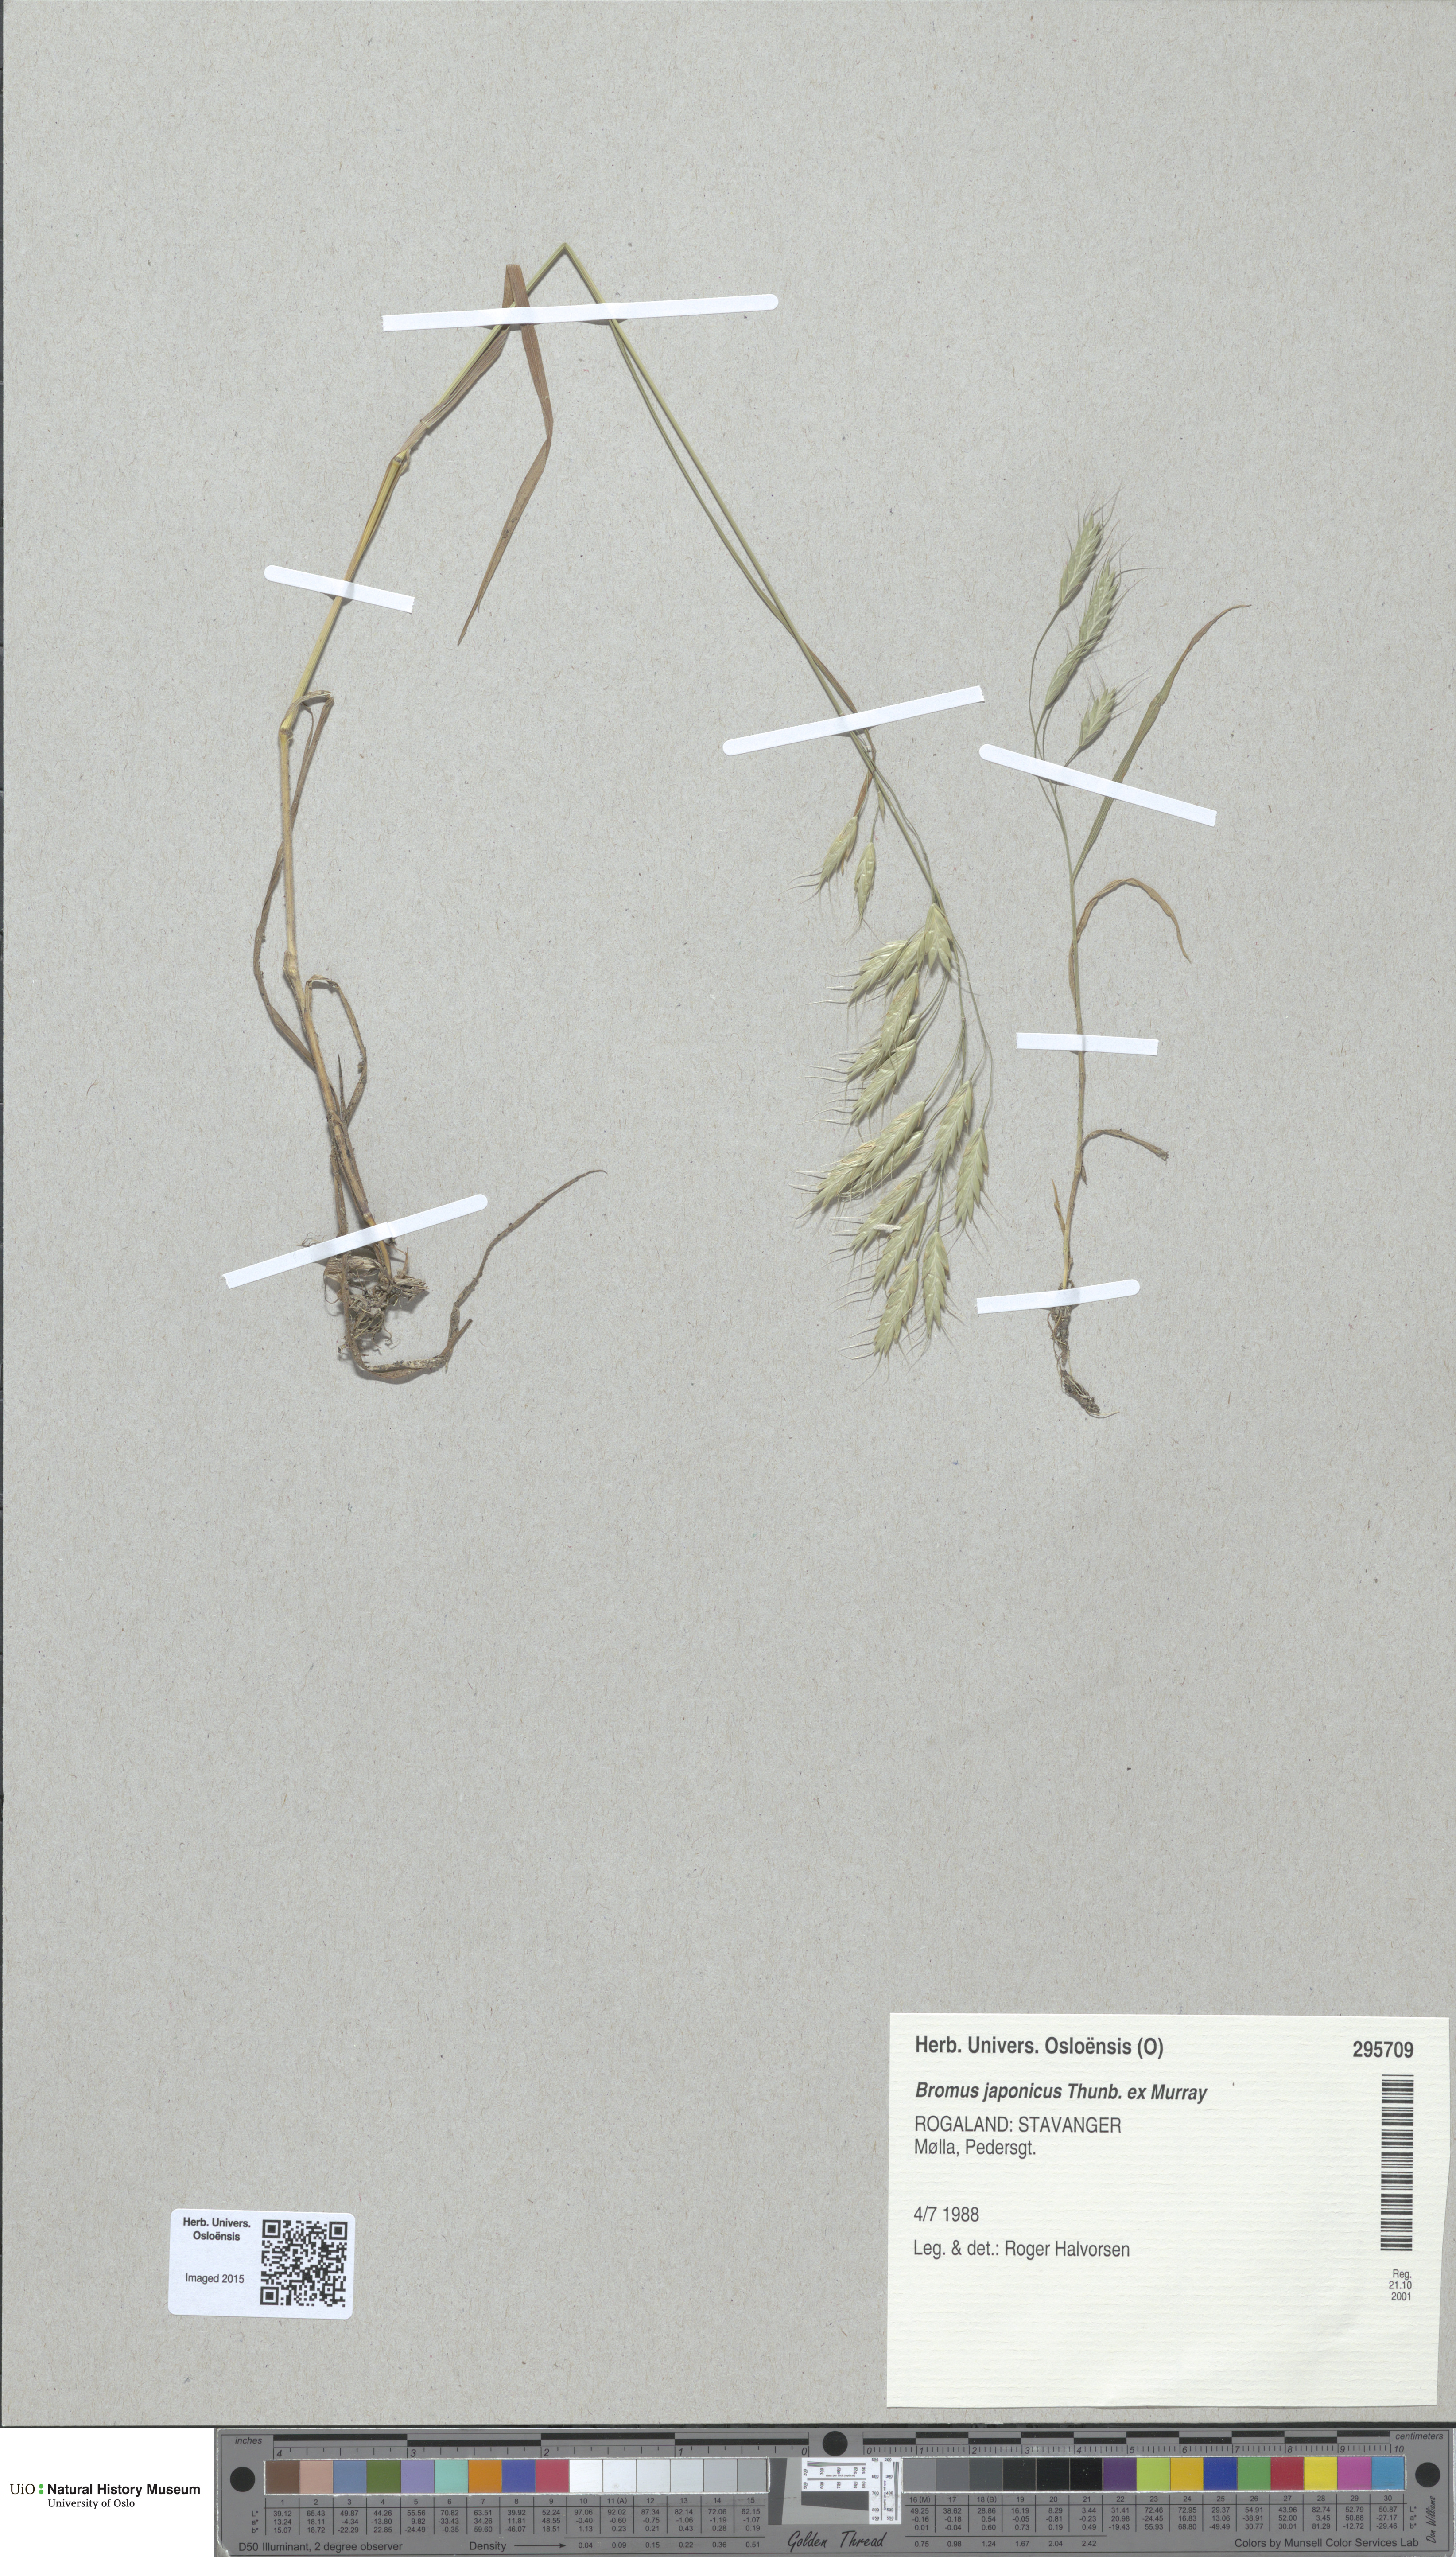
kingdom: Plantae
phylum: Tracheophyta
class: Liliopsida
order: Poales
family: Poaceae
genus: Bromus
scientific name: Bromus japonicus
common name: Japanese brome
